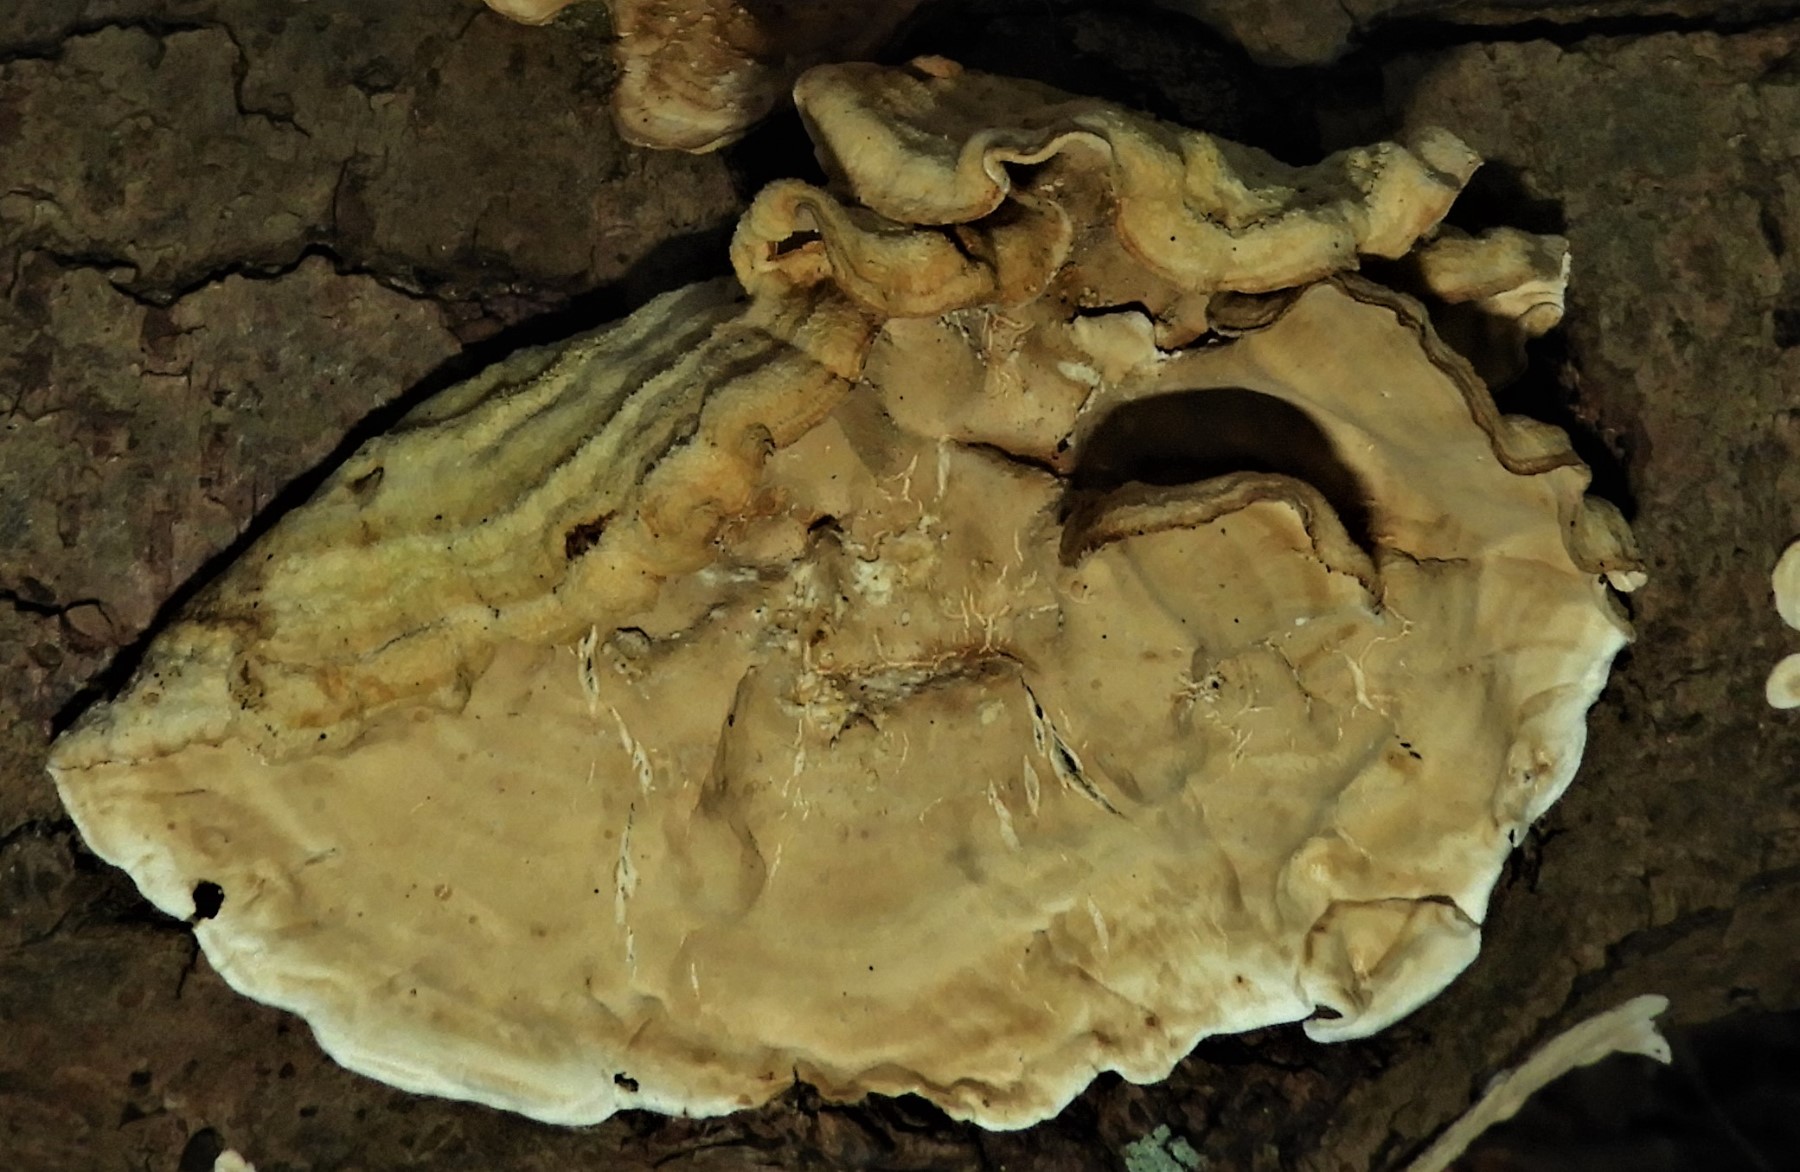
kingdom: Fungi
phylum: Basidiomycota
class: Agaricomycetes
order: Russulales
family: Stereaceae
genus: Stereum
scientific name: Stereum subtomentosum
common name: smuk lædersvamp
